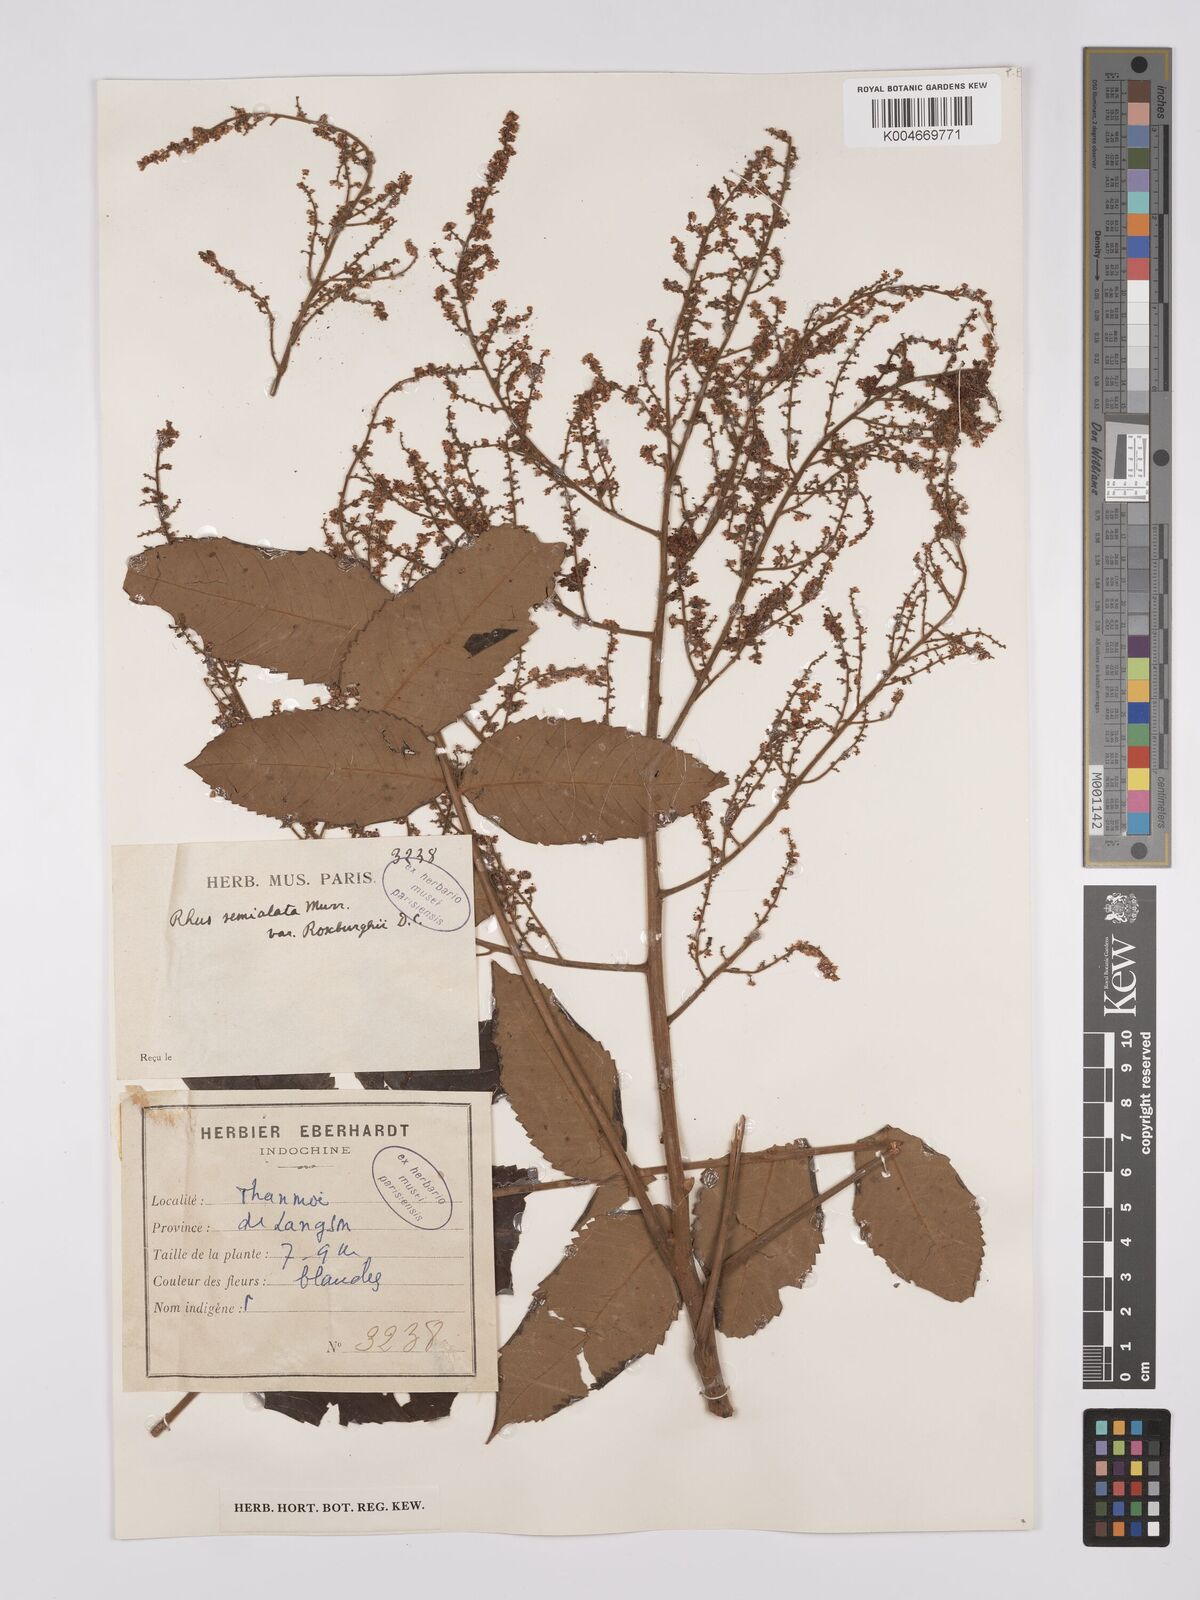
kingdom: Plantae
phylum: Tracheophyta
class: Magnoliopsida
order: Sapindales
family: Anacardiaceae
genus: Rhus
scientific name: Rhus chinensis
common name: Chinese gall
